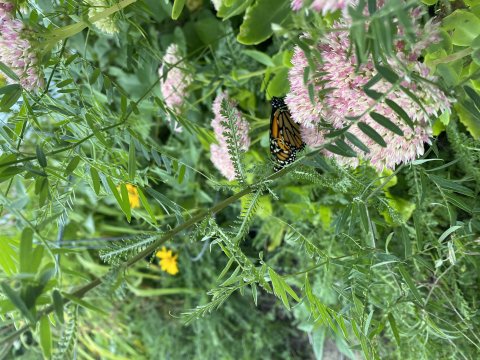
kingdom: Animalia
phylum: Arthropoda
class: Insecta
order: Lepidoptera
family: Nymphalidae
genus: Danaus
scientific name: Danaus plexippus
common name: Monarch
